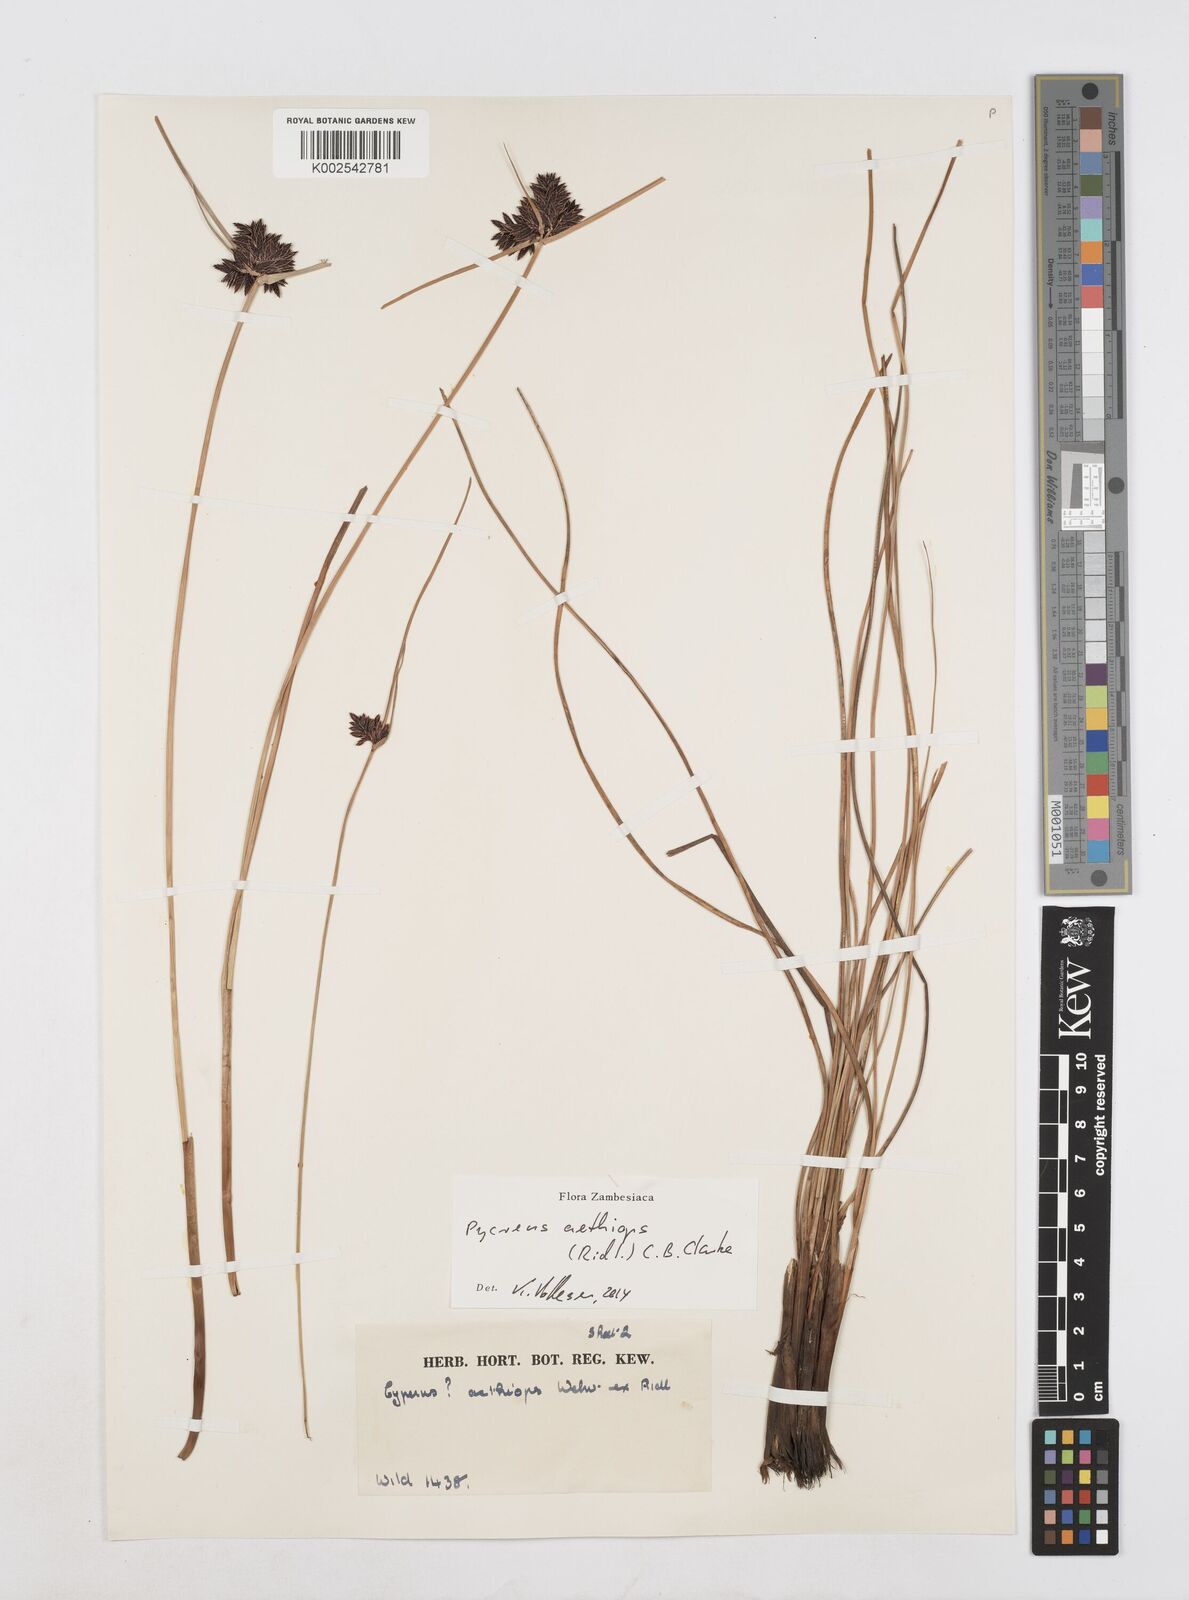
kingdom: Plantae
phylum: Tracheophyta
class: Liliopsida
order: Poales
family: Cyperaceae
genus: Cyperus
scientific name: Cyperus aethiops
